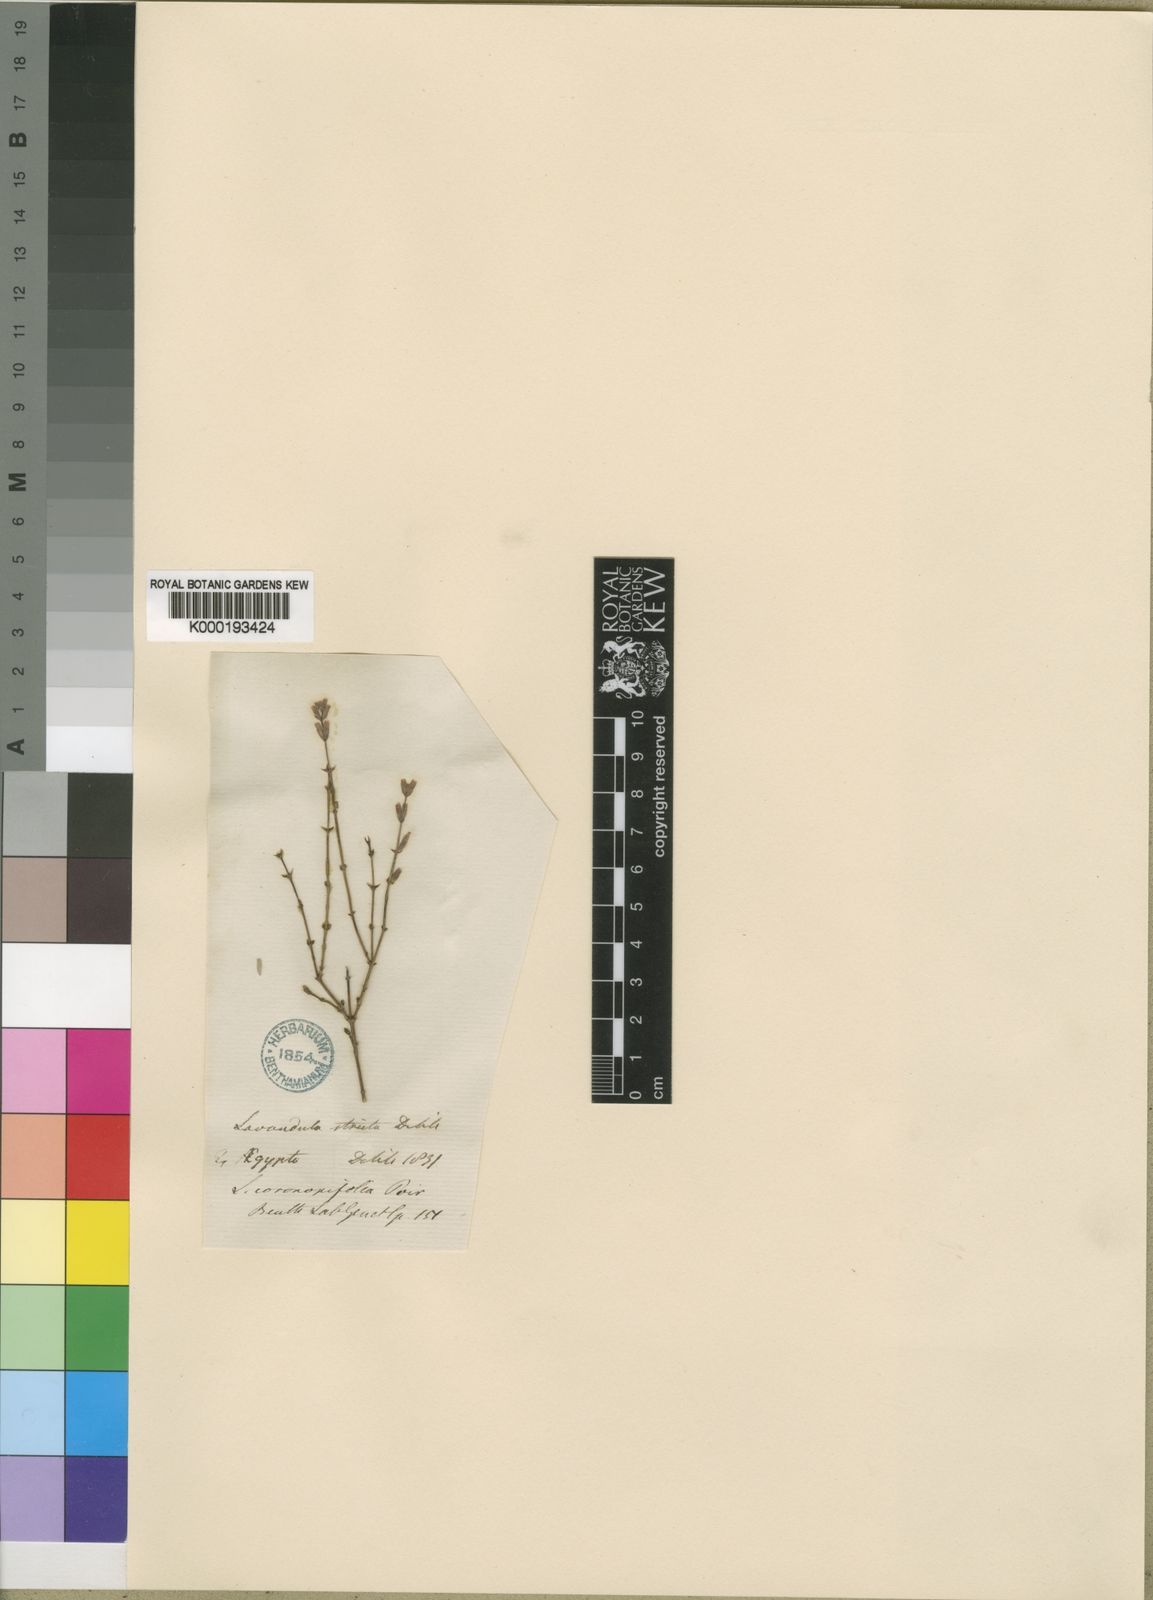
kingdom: Plantae
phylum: Tracheophyta
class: Magnoliopsida
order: Lamiales
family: Lamiaceae
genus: Lavandula
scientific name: Lavandula coronopifolia
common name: Stagshorn lavender
